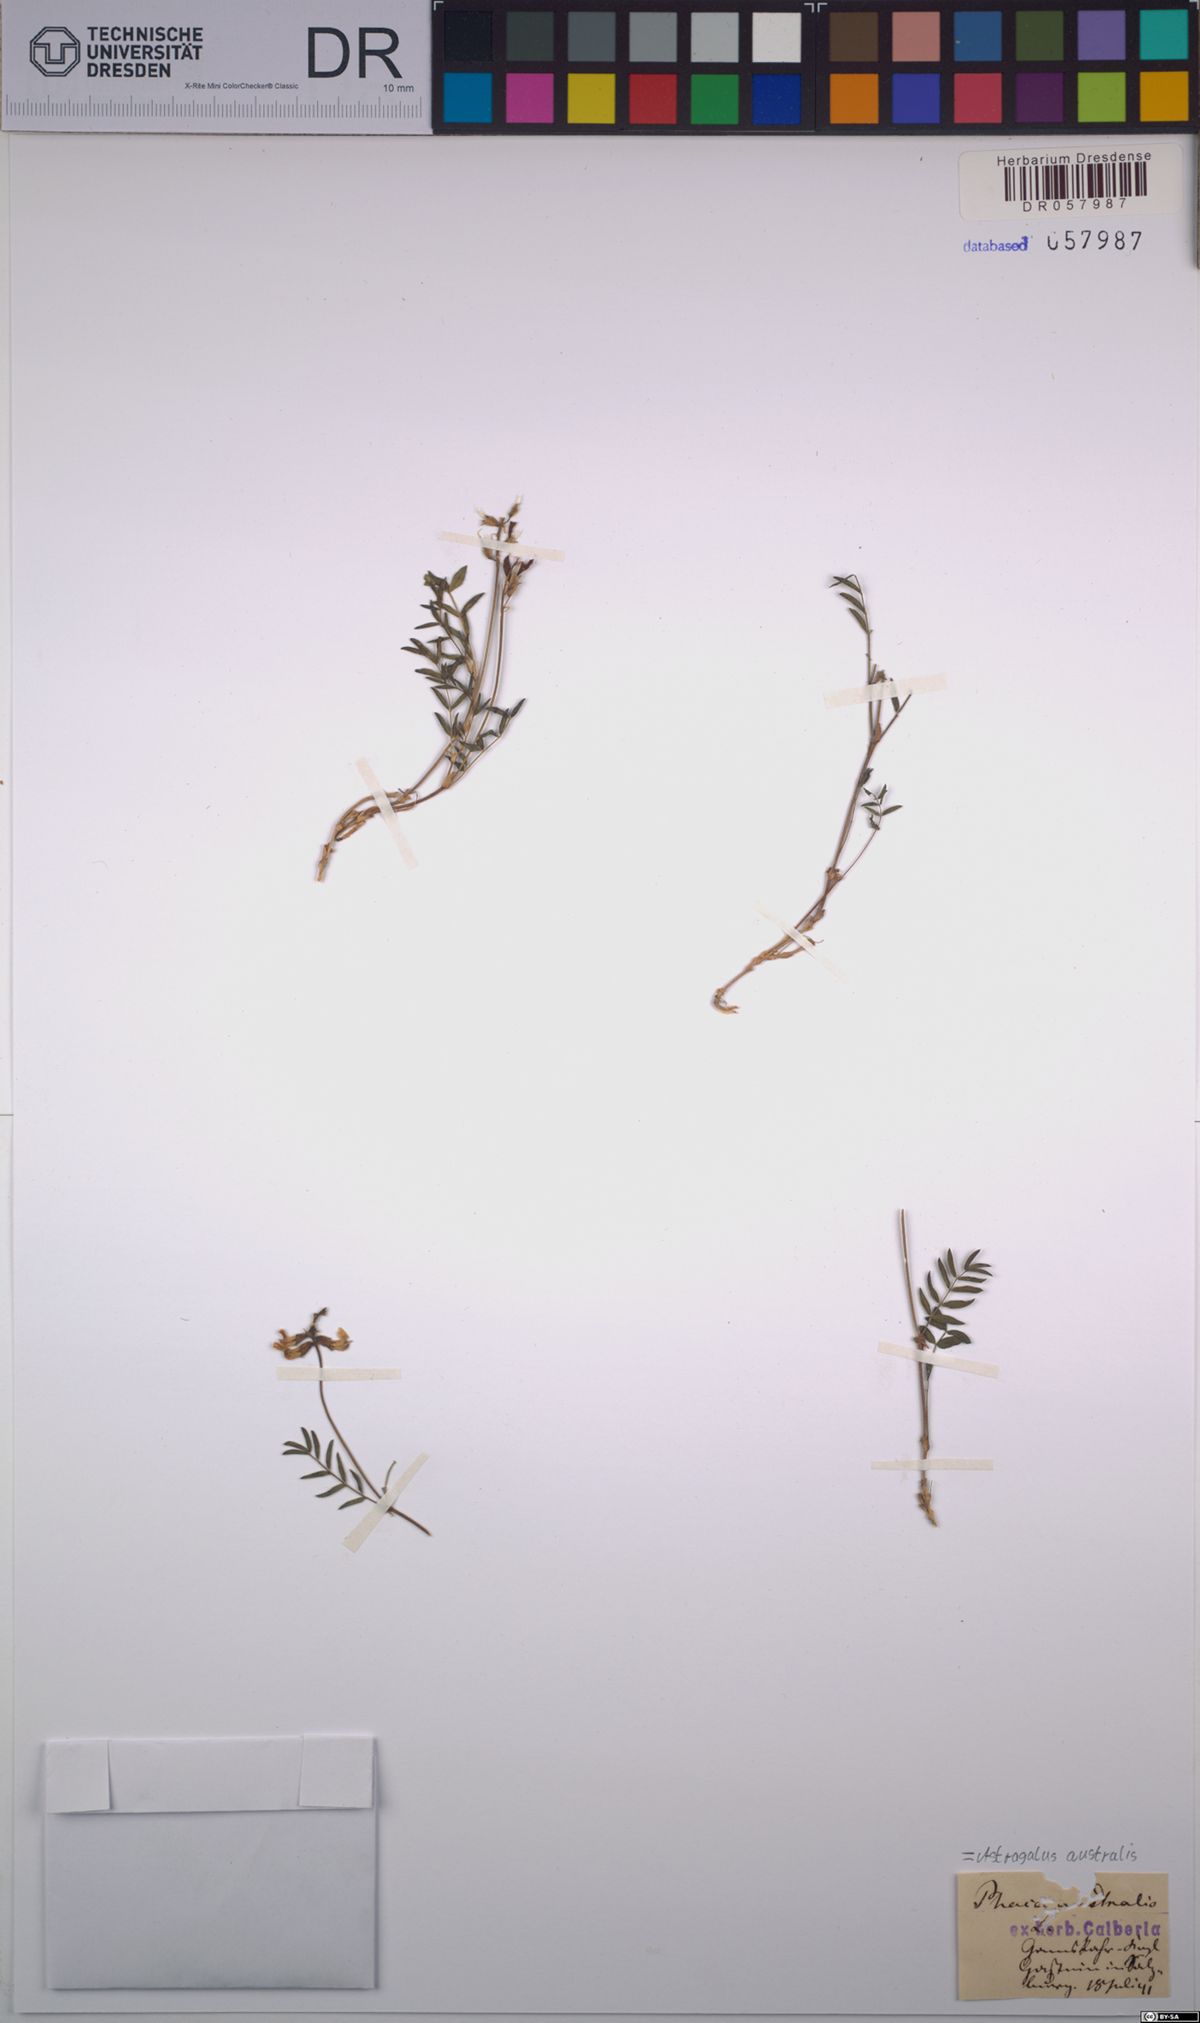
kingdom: Plantae
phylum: Tracheophyta
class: Magnoliopsida
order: Fabales
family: Fabaceae
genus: Astragalus
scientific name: Astragalus australis
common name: Indian milk-vetch
